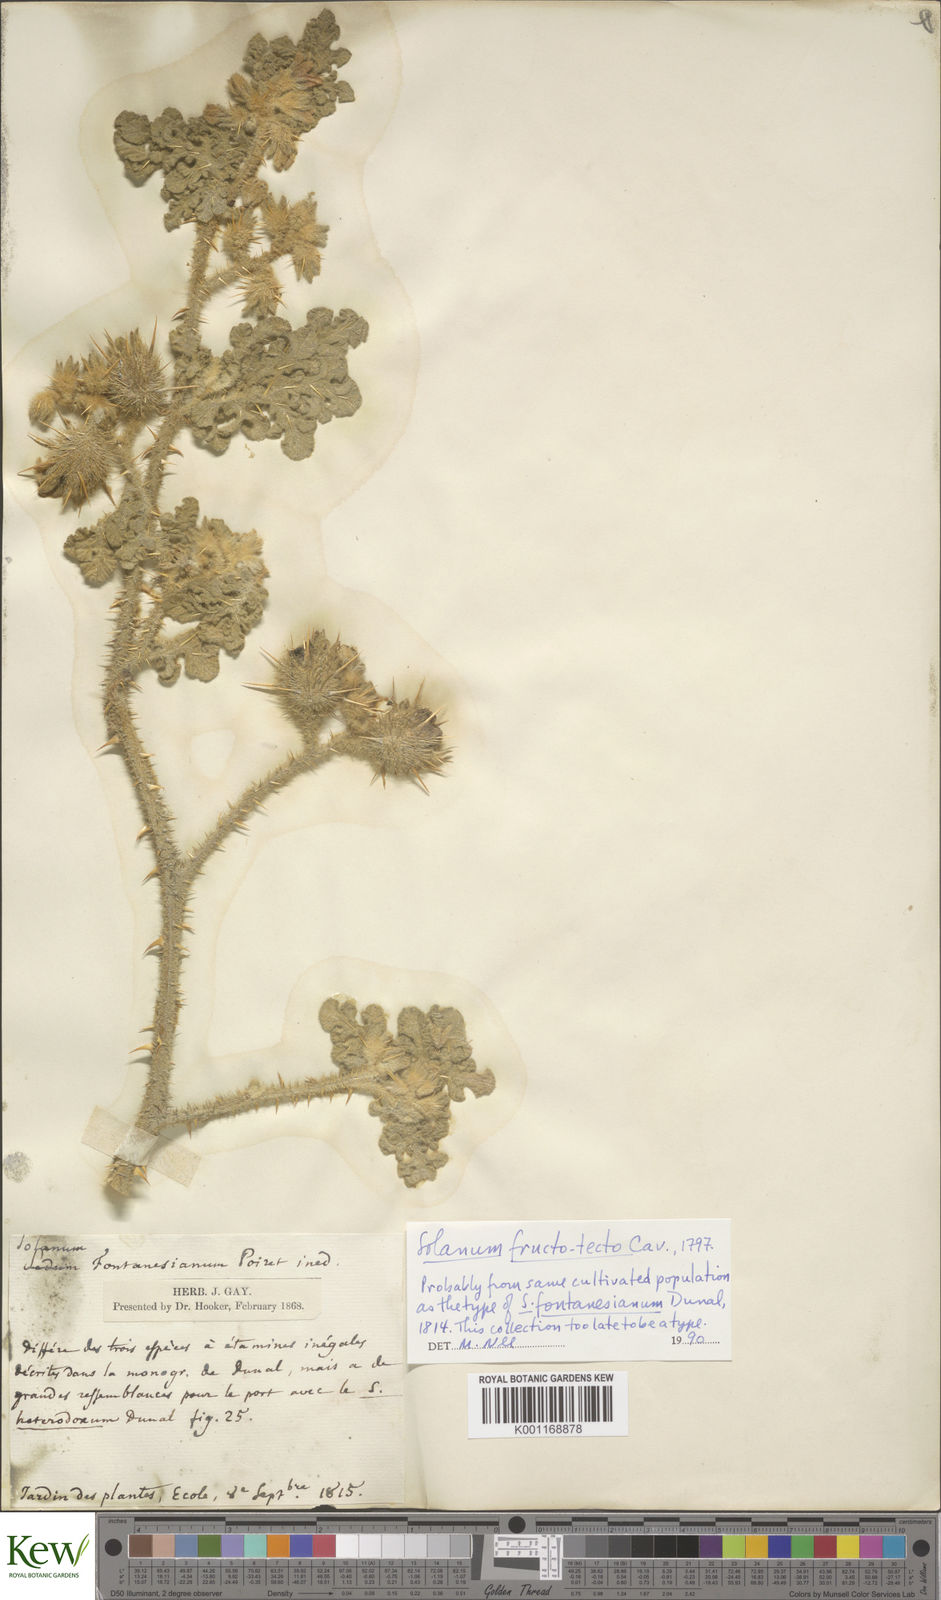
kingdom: Plantae
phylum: Tracheophyta
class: Magnoliopsida
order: Solanales
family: Solanaceae
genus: Solanum
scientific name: Solanum insanum
